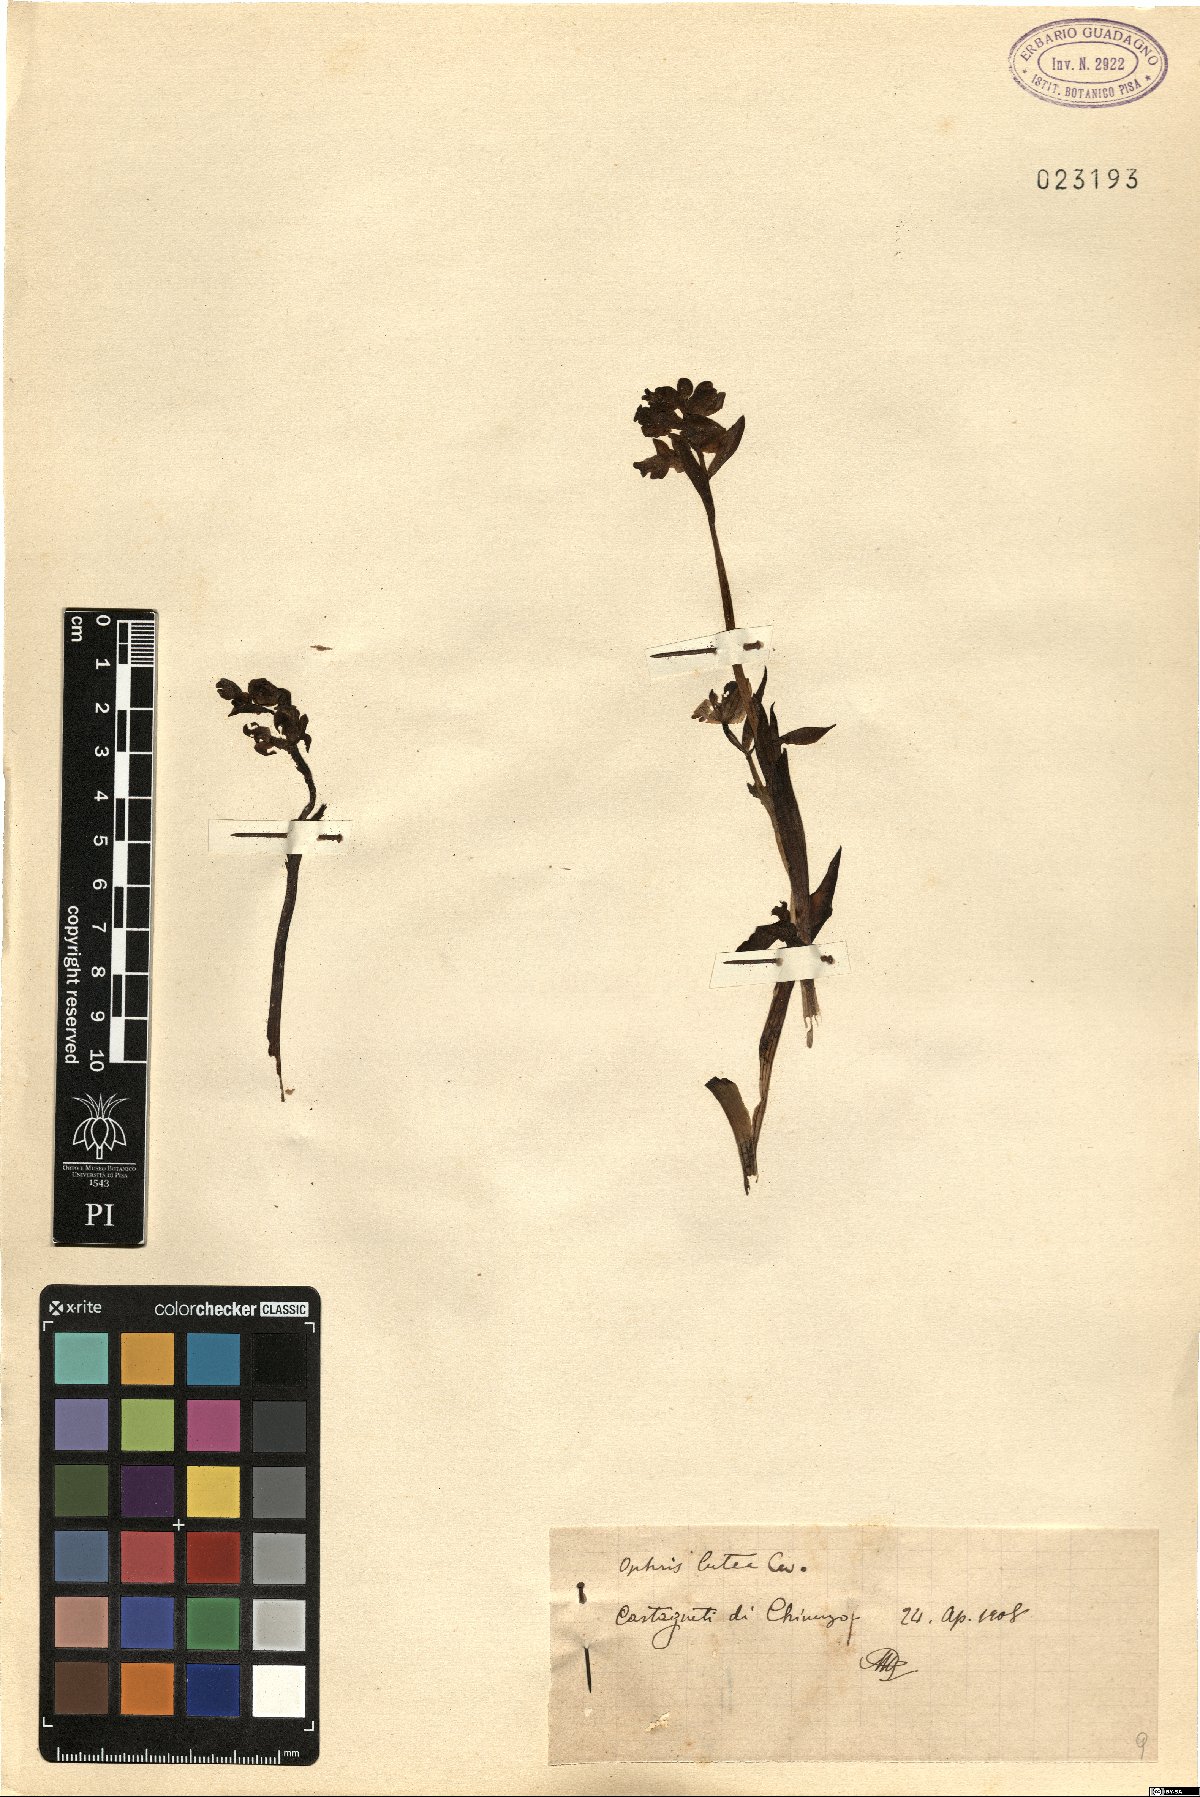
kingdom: Plantae
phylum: Tracheophyta
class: Liliopsida
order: Asparagales
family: Orchidaceae
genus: Ophrys
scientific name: Ophrys lutea
